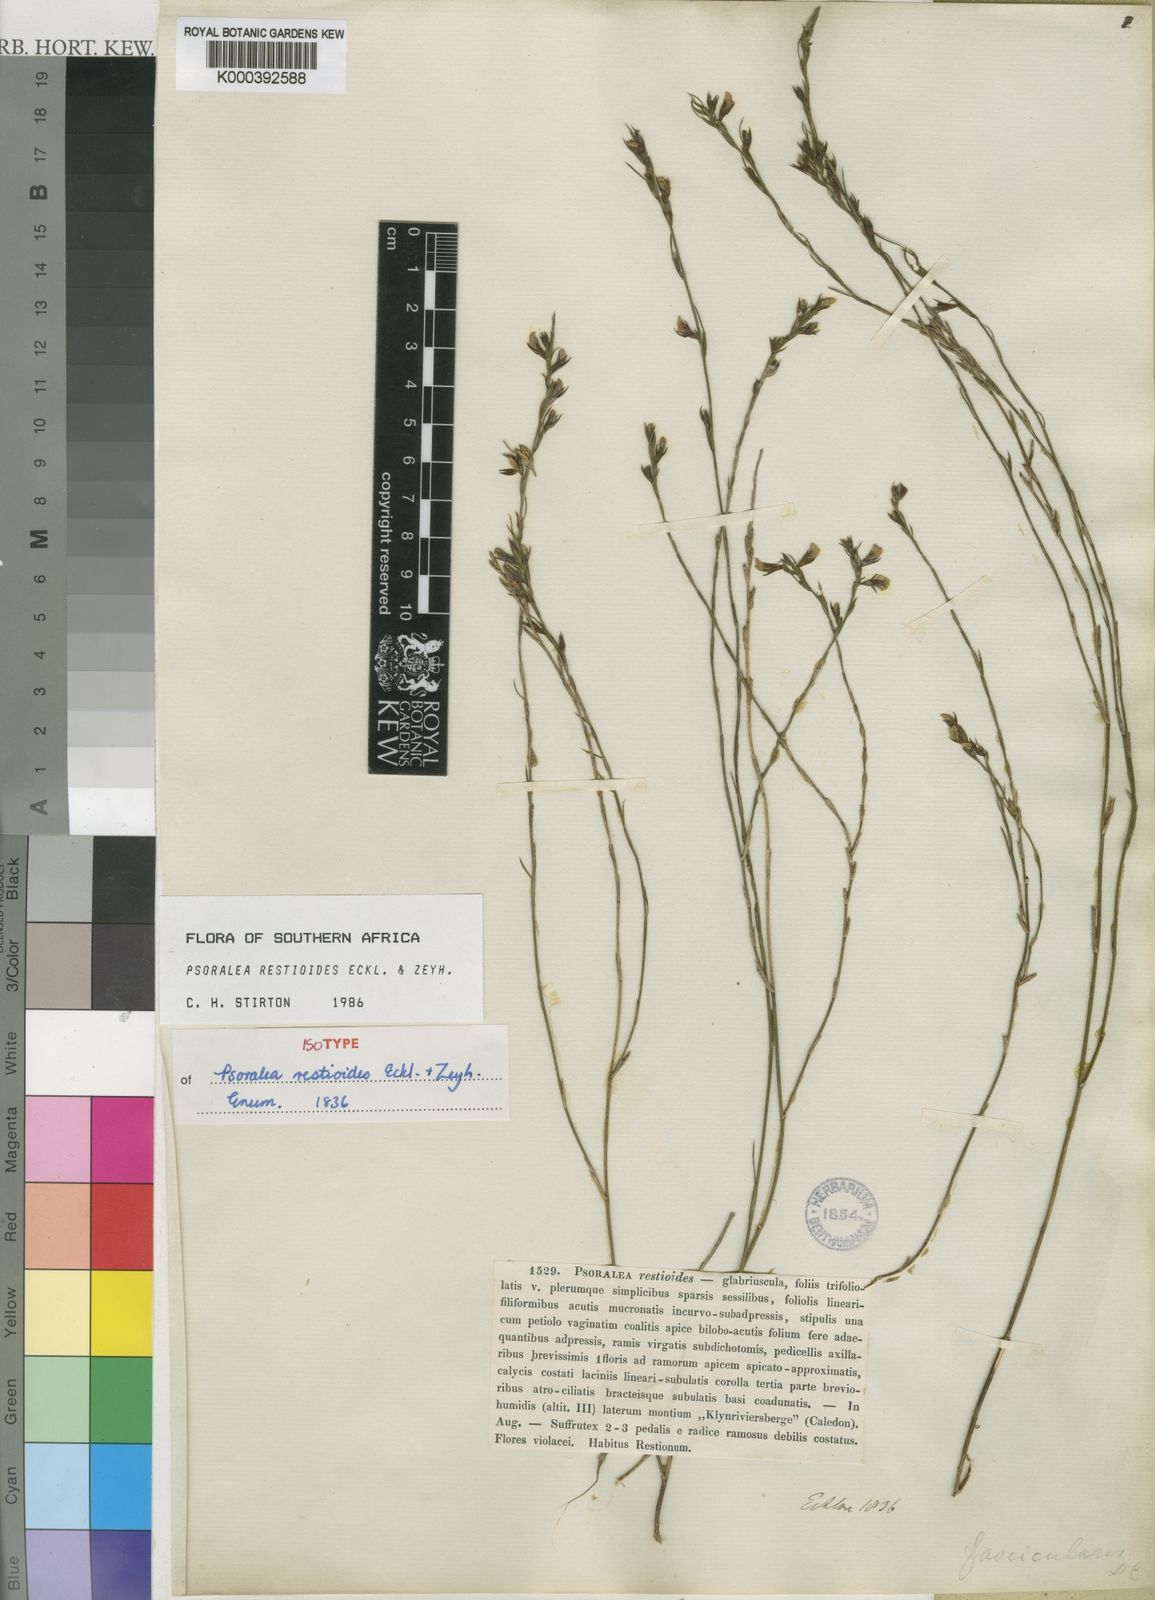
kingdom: Plantae
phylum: Tracheophyta
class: Magnoliopsida
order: Fabales
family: Fabaceae
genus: Psoralea
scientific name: Psoralea restioides
